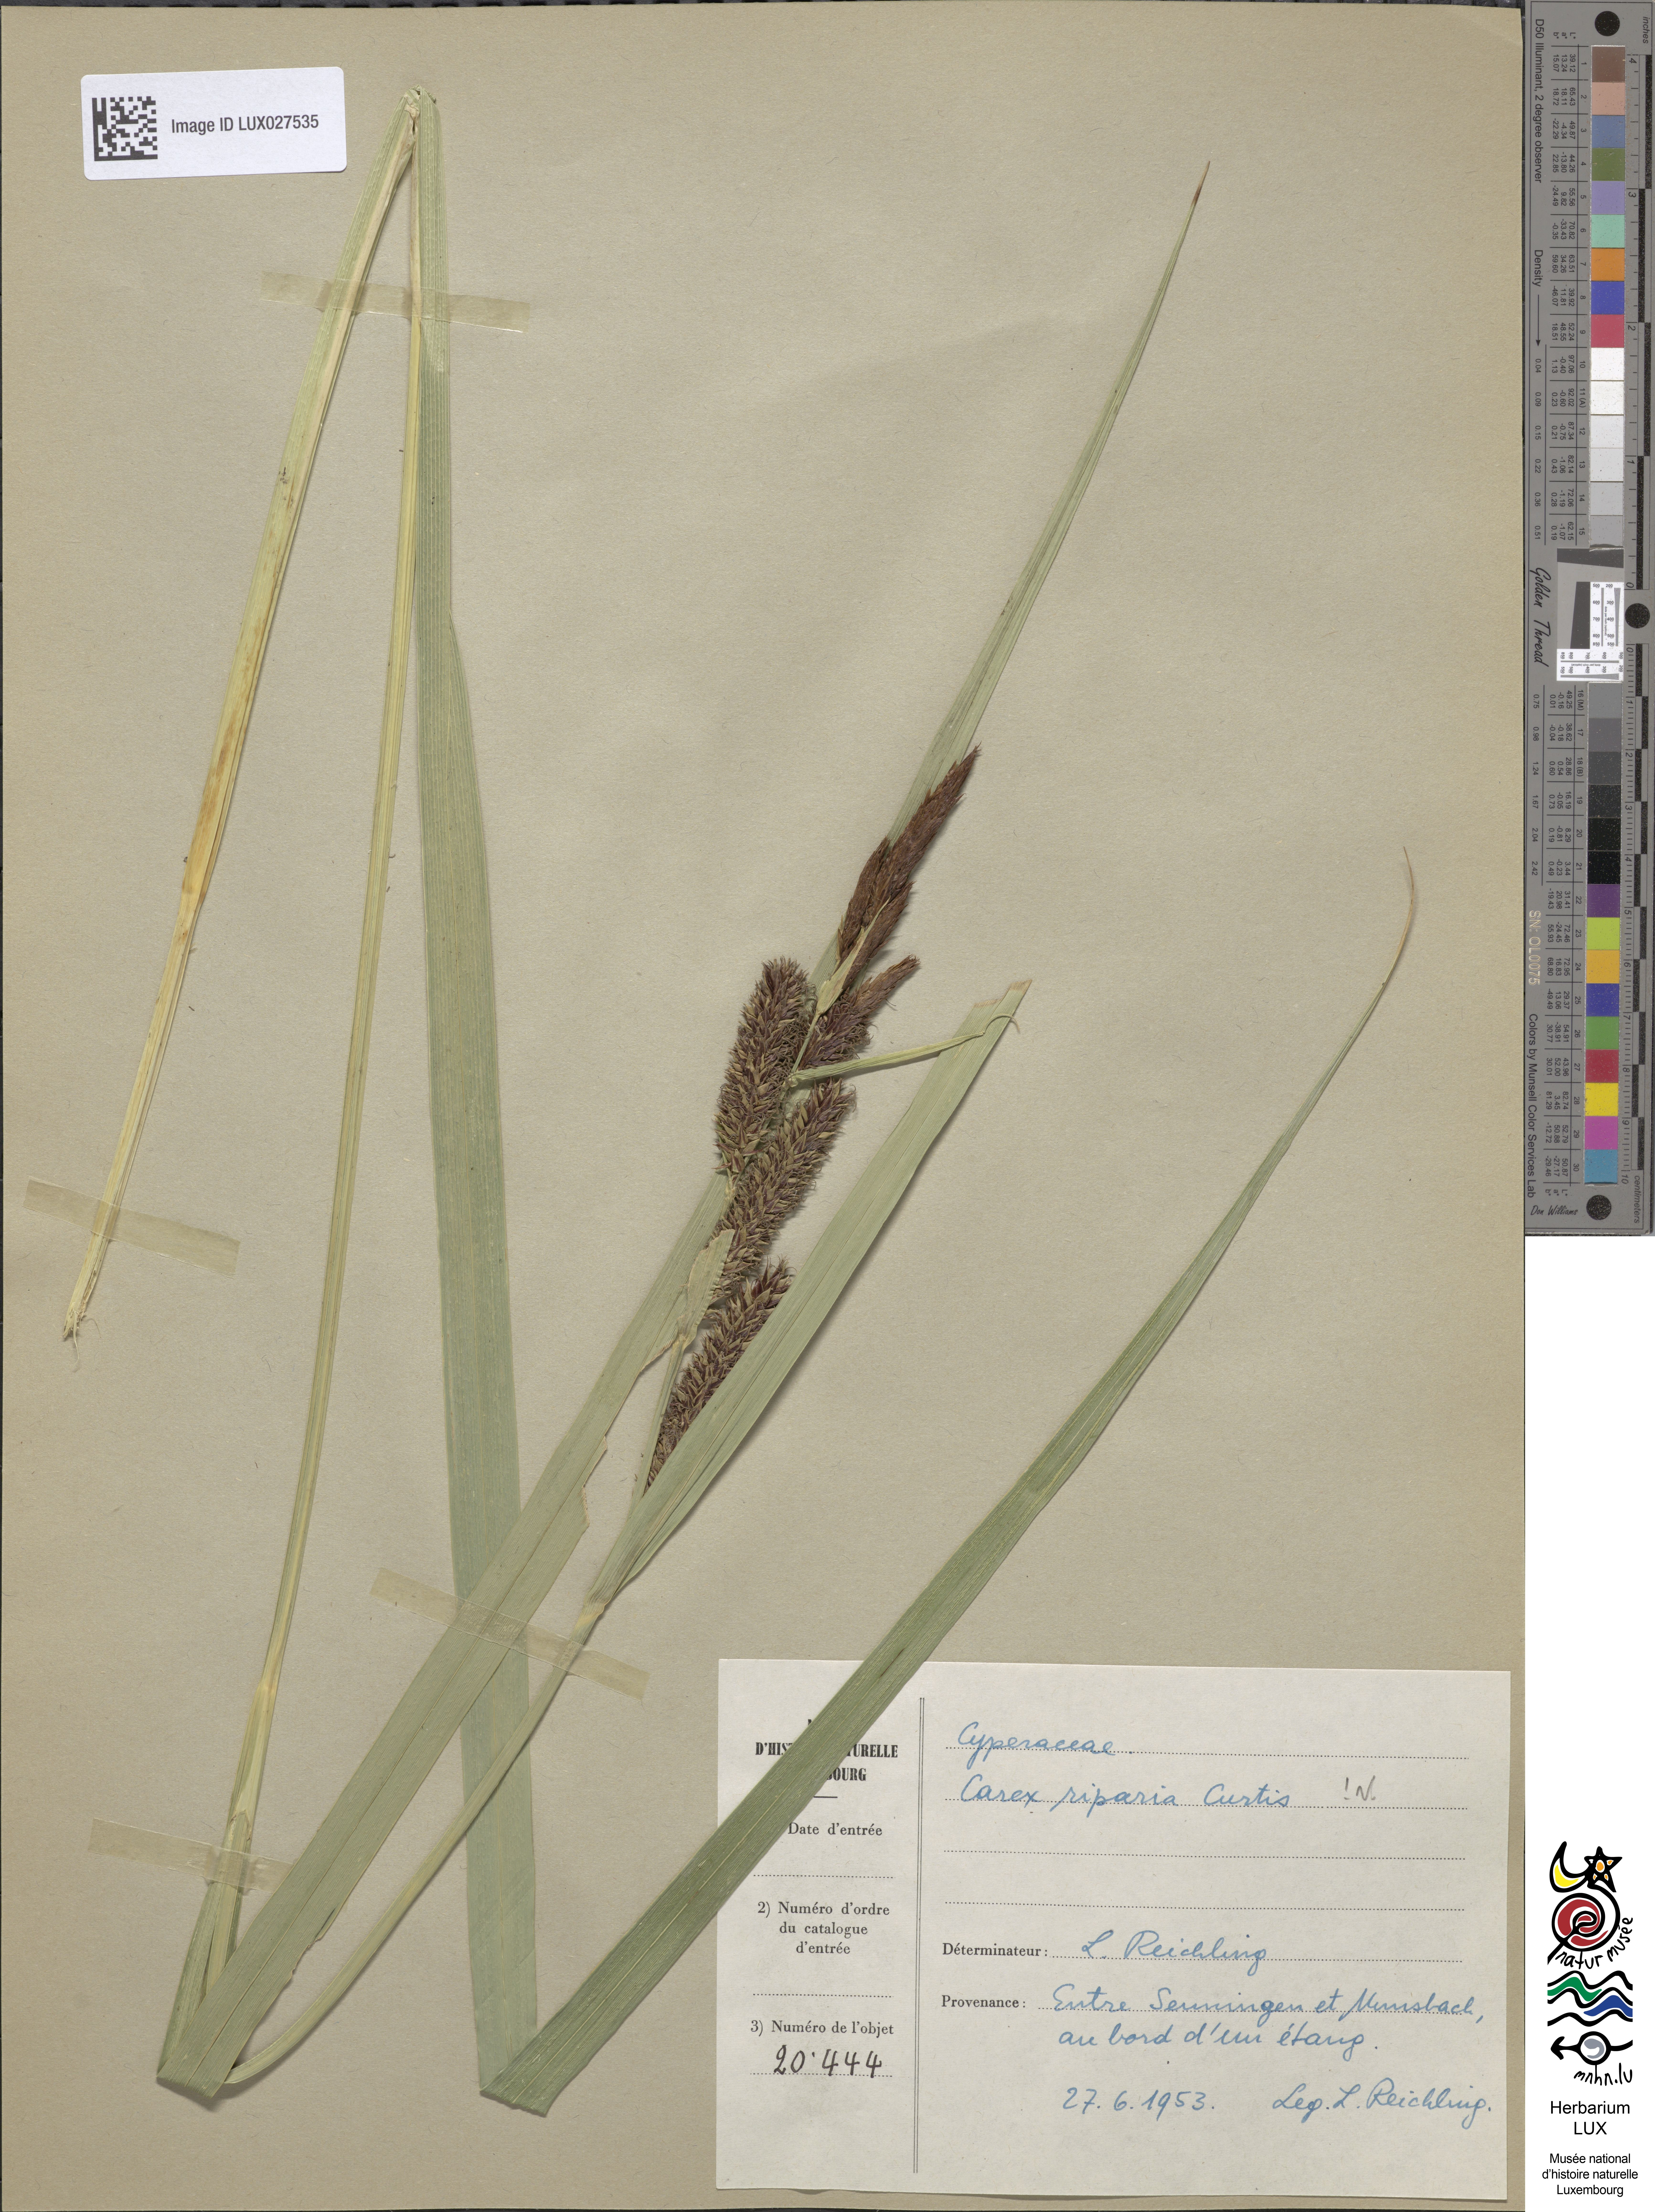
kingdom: Plantae
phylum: Tracheophyta
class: Liliopsida
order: Poales
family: Cyperaceae
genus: Carex
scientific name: Carex riparia
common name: Greater pond-sedge
